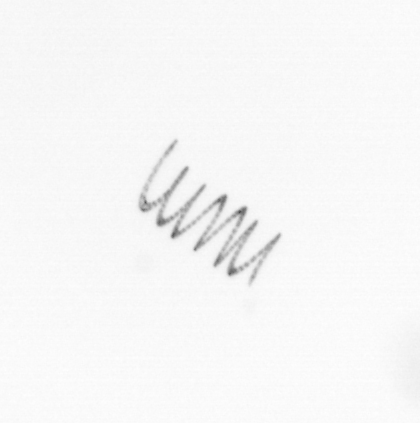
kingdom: Chromista
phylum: Ochrophyta
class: Bacillariophyceae
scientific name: Bacillariophyceae
